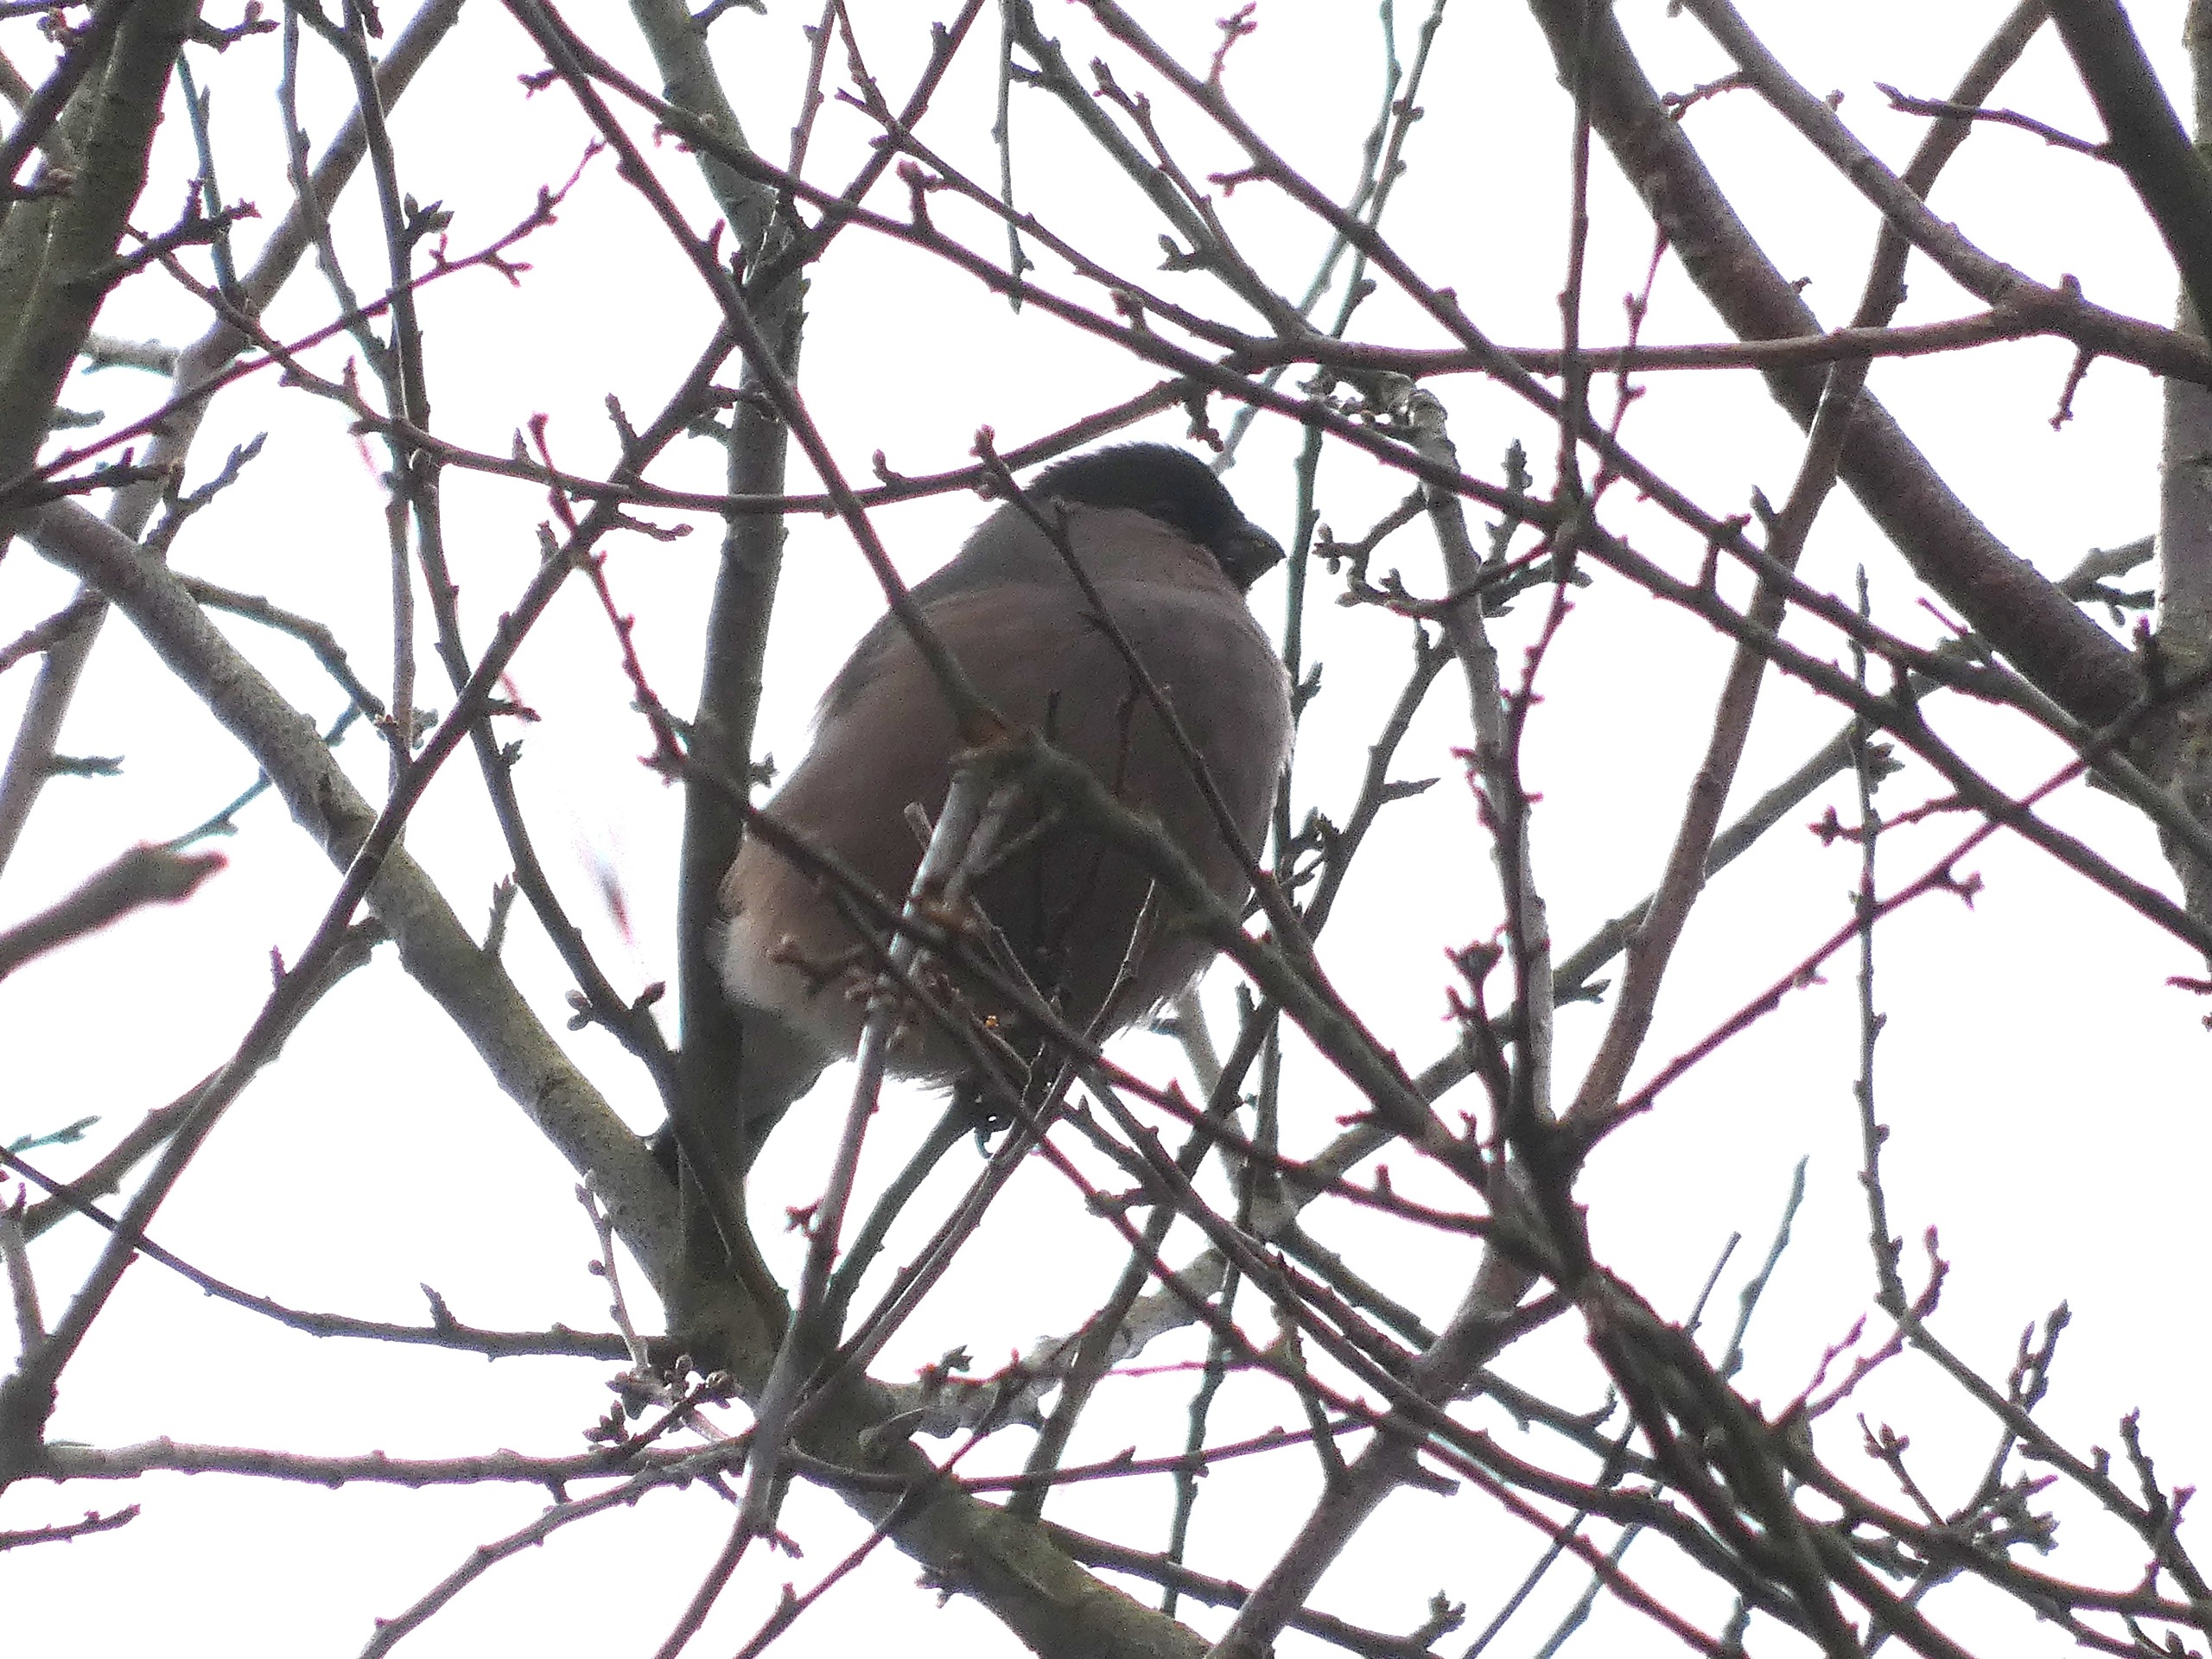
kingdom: Animalia
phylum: Chordata
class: Aves
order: Passeriformes
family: Fringillidae
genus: Pyrrhula
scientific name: Pyrrhula pyrrhula
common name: Dompap
